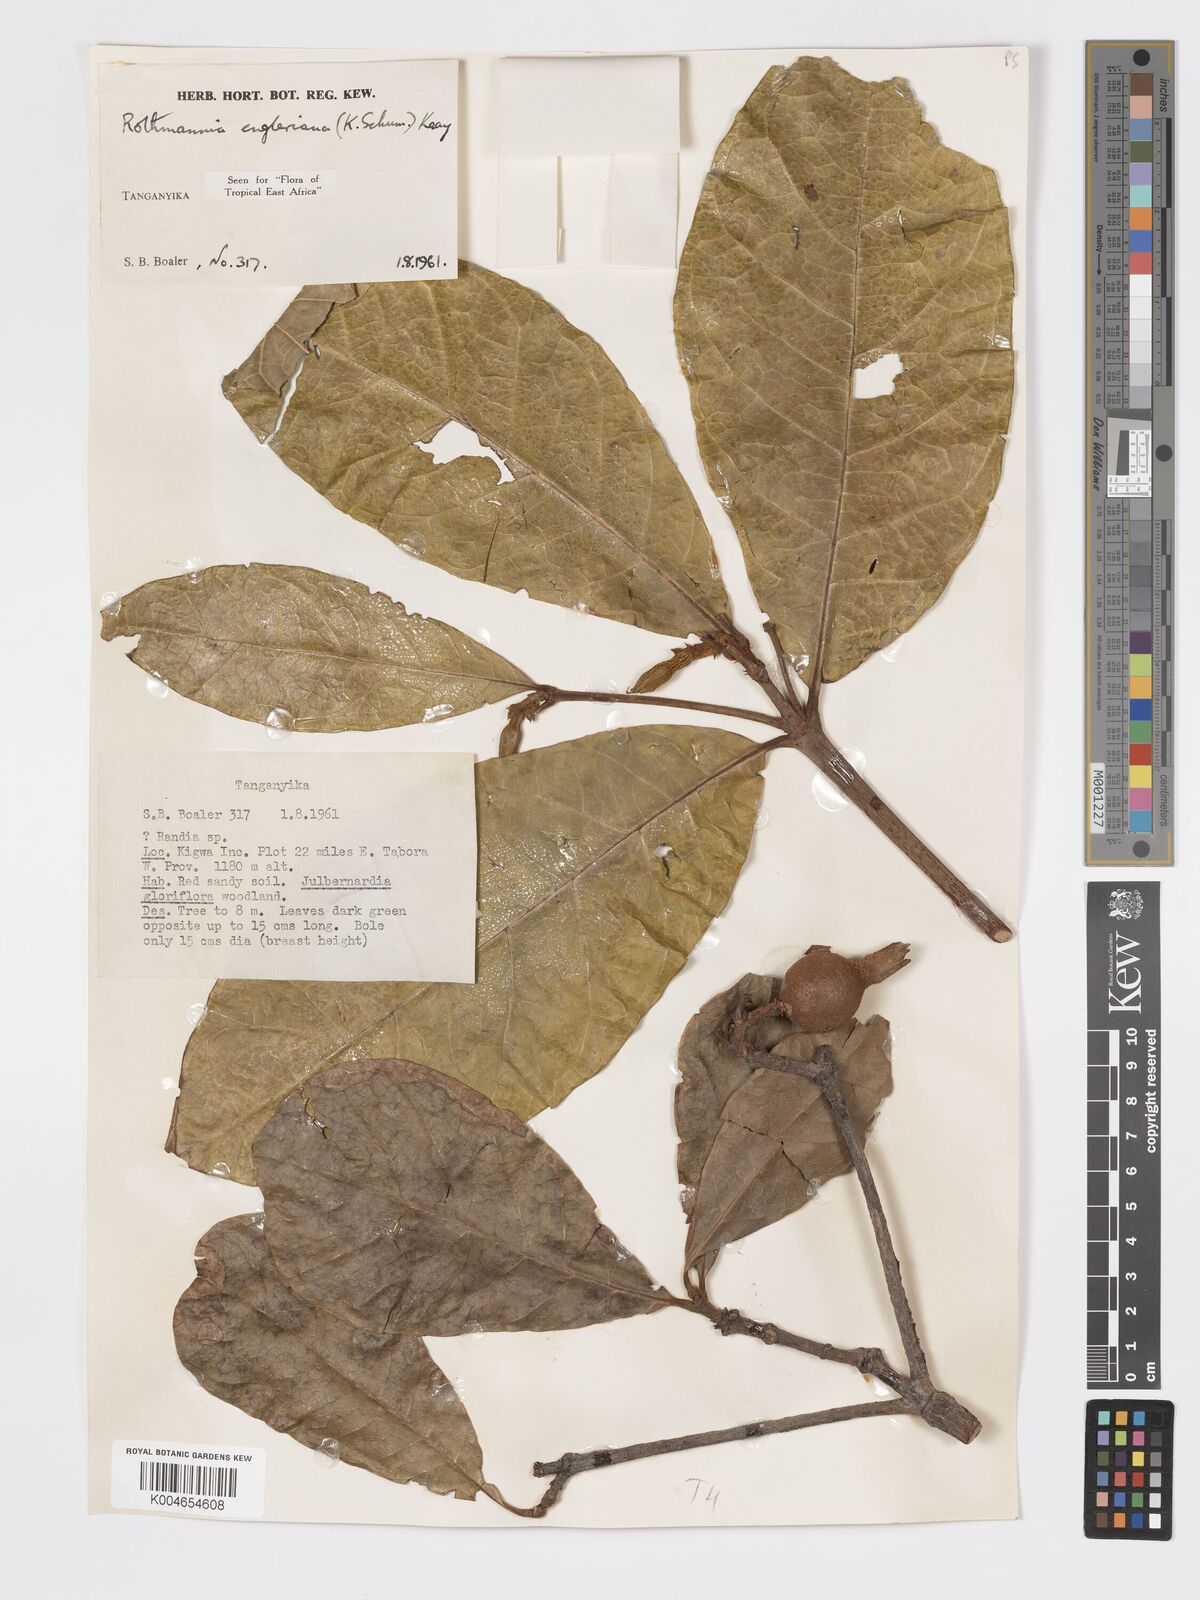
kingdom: Plantae
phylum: Tracheophyta
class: Magnoliopsida
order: Gentianales
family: Rubiaceae
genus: Rothmannia
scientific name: Rothmannia engleriana
